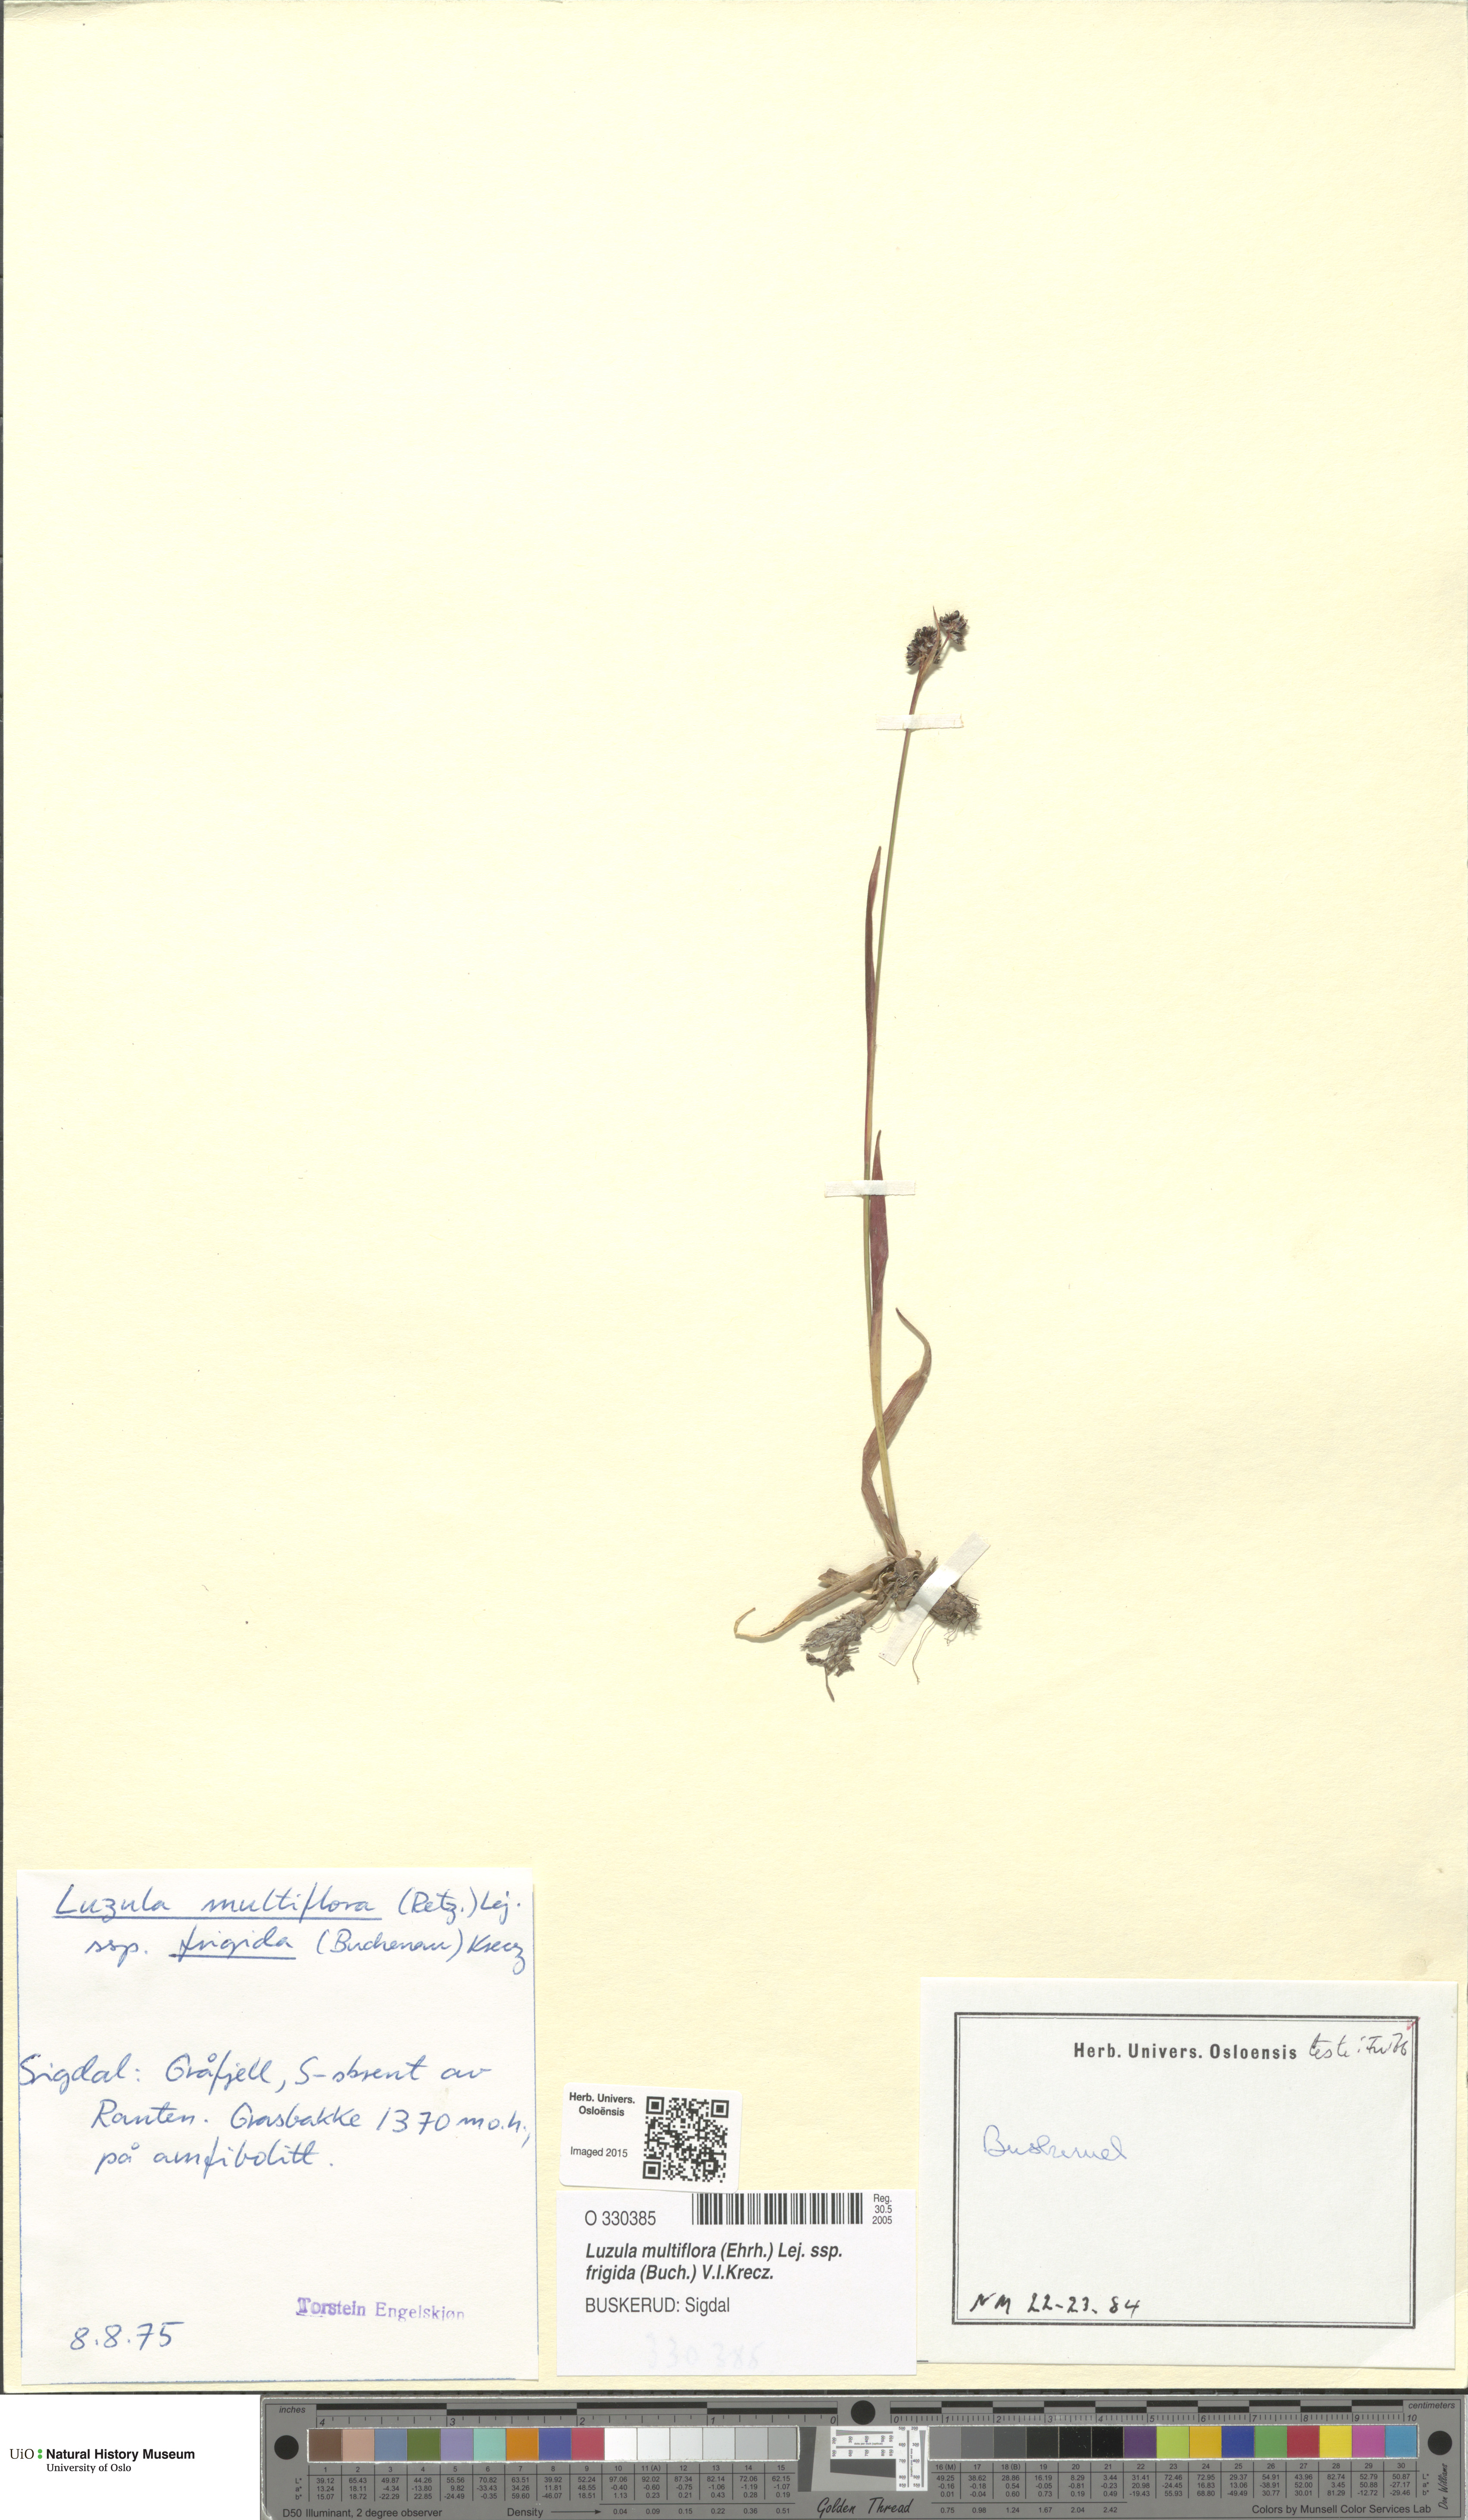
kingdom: Plantae
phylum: Tracheophyta
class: Liliopsida
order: Poales
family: Juncaceae
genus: Luzula
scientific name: Luzula multiflora
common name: Heath wood-rush
